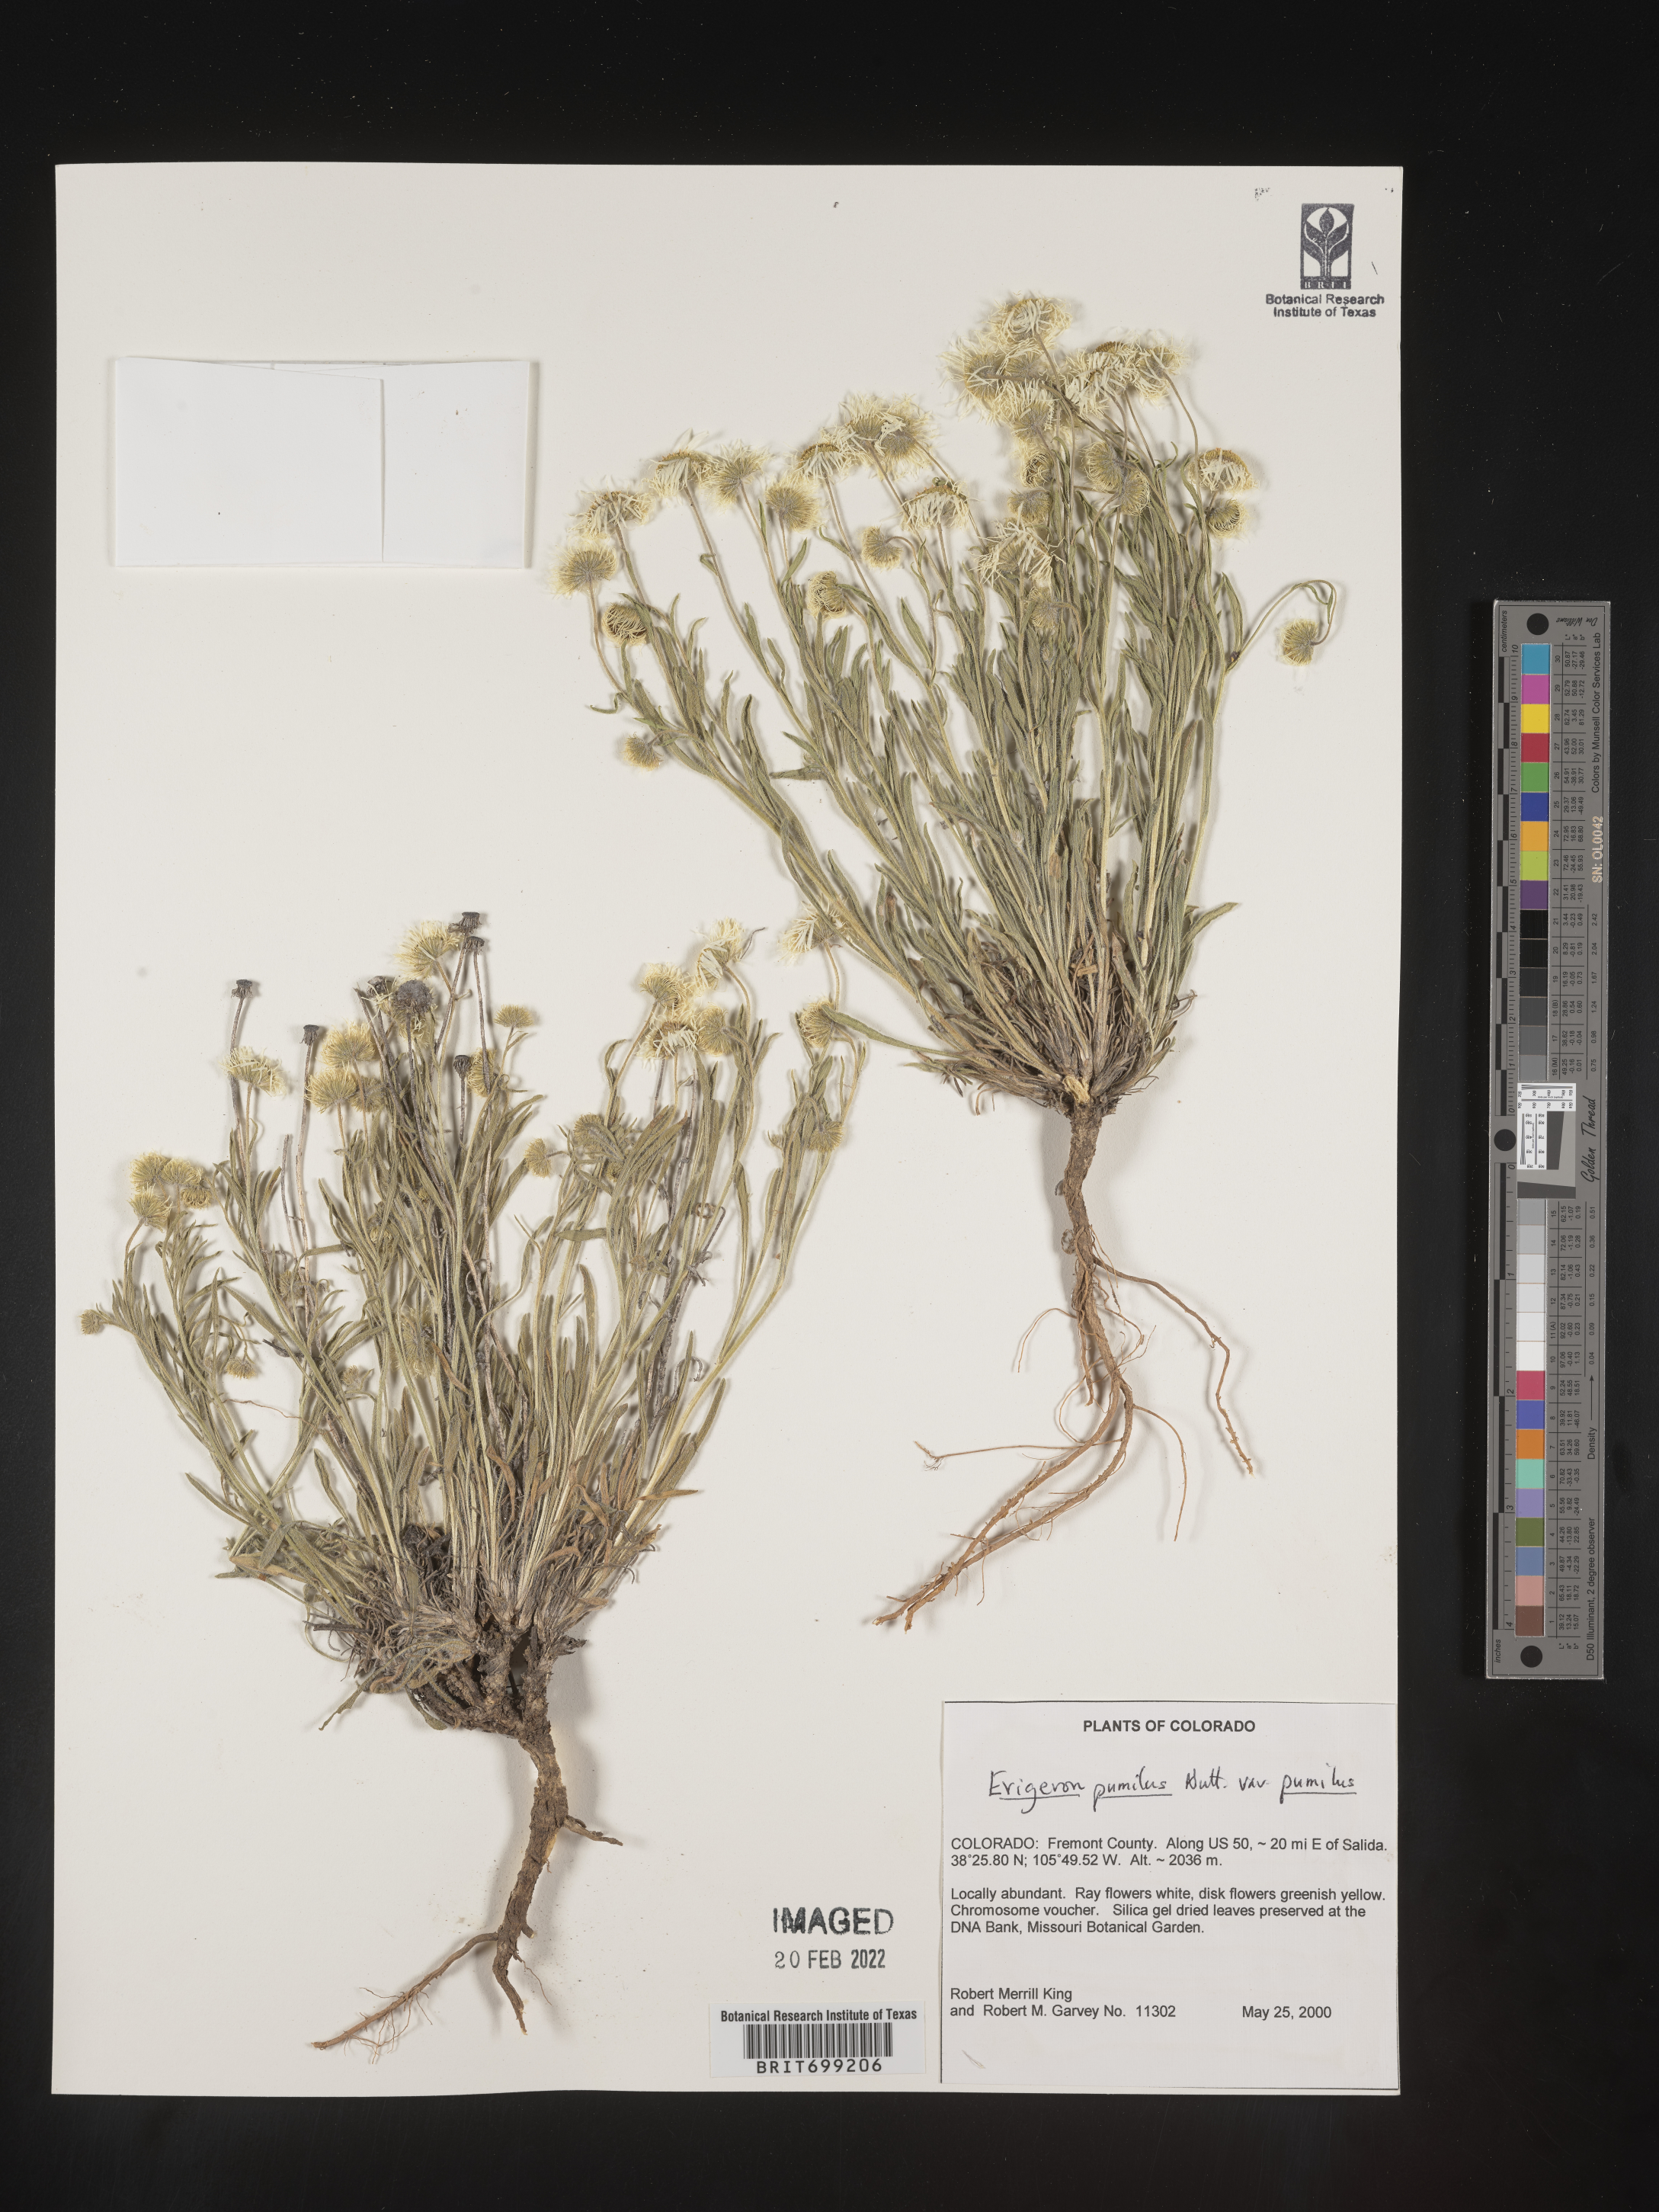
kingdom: Plantae
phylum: Tracheophyta
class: Magnoliopsida
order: Asterales
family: Asteraceae
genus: Erigeron
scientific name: Erigeron pumilus
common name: Shaggy fleabane
